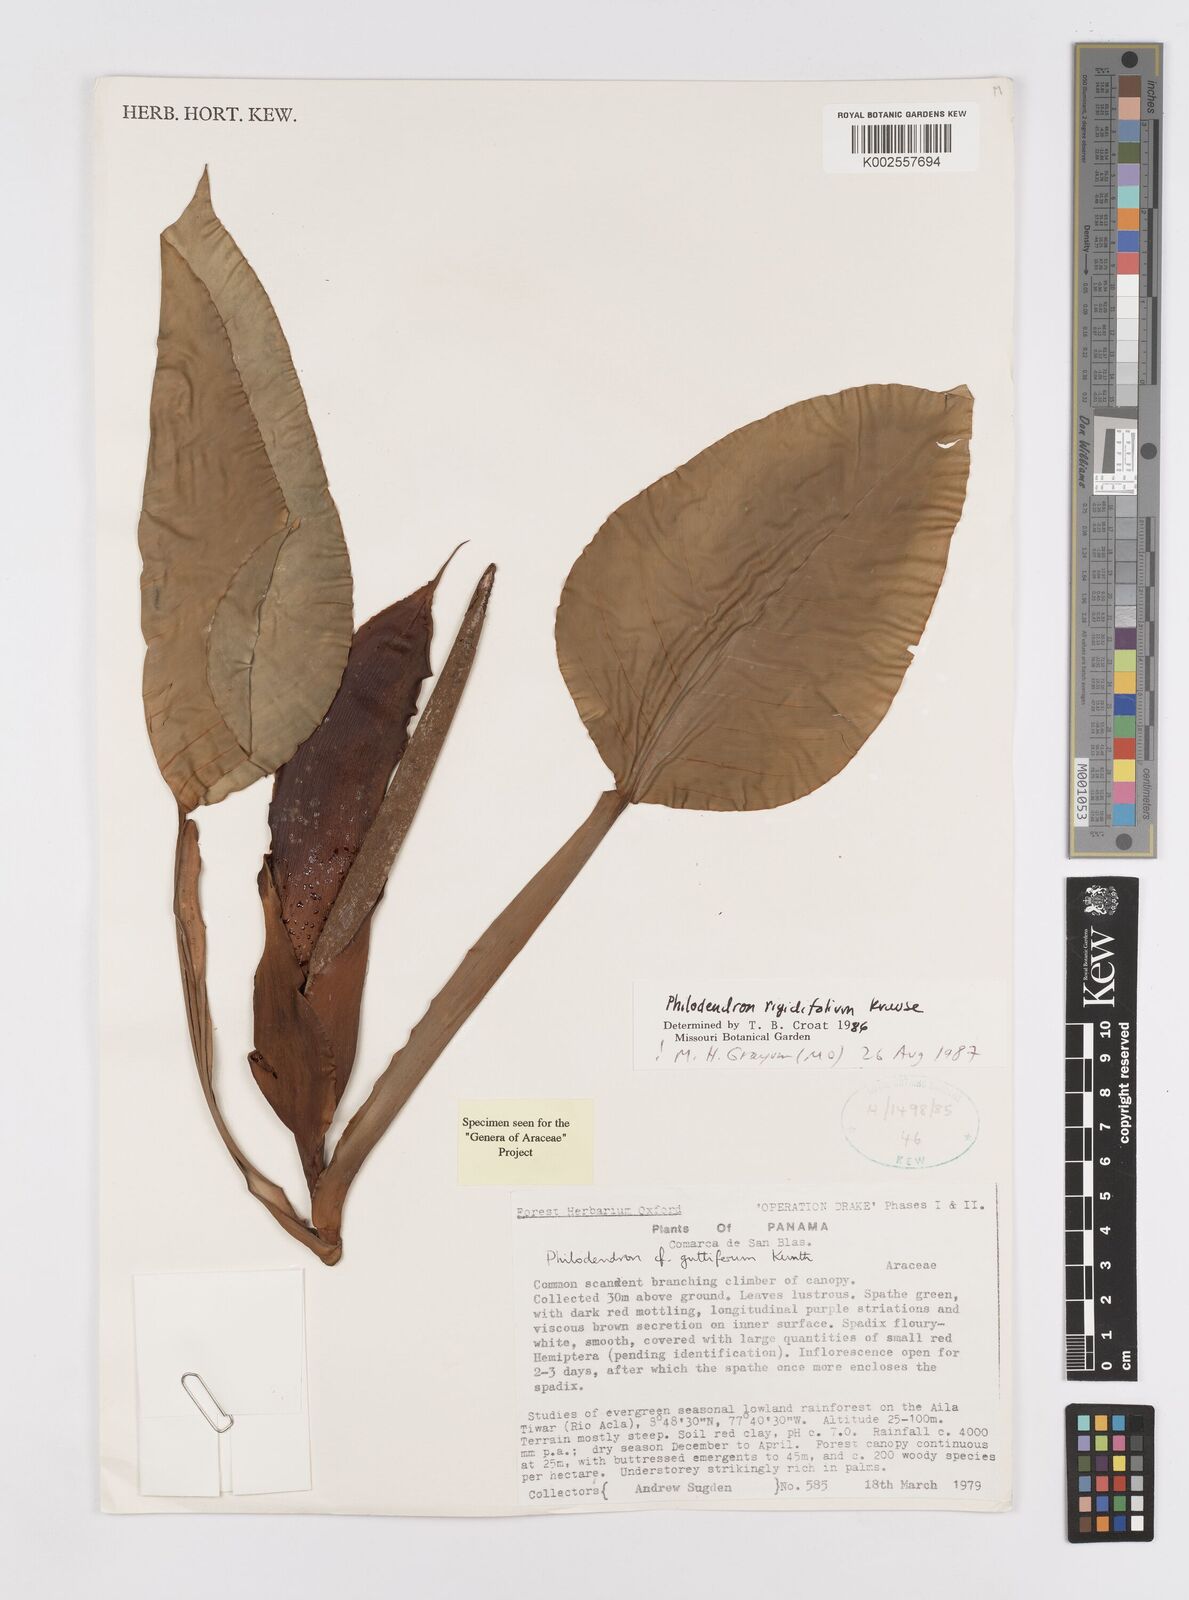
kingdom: Plantae
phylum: Tracheophyta
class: Liliopsida
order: Alismatales
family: Araceae
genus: Philodendron
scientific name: Philodendron rigidifolium
